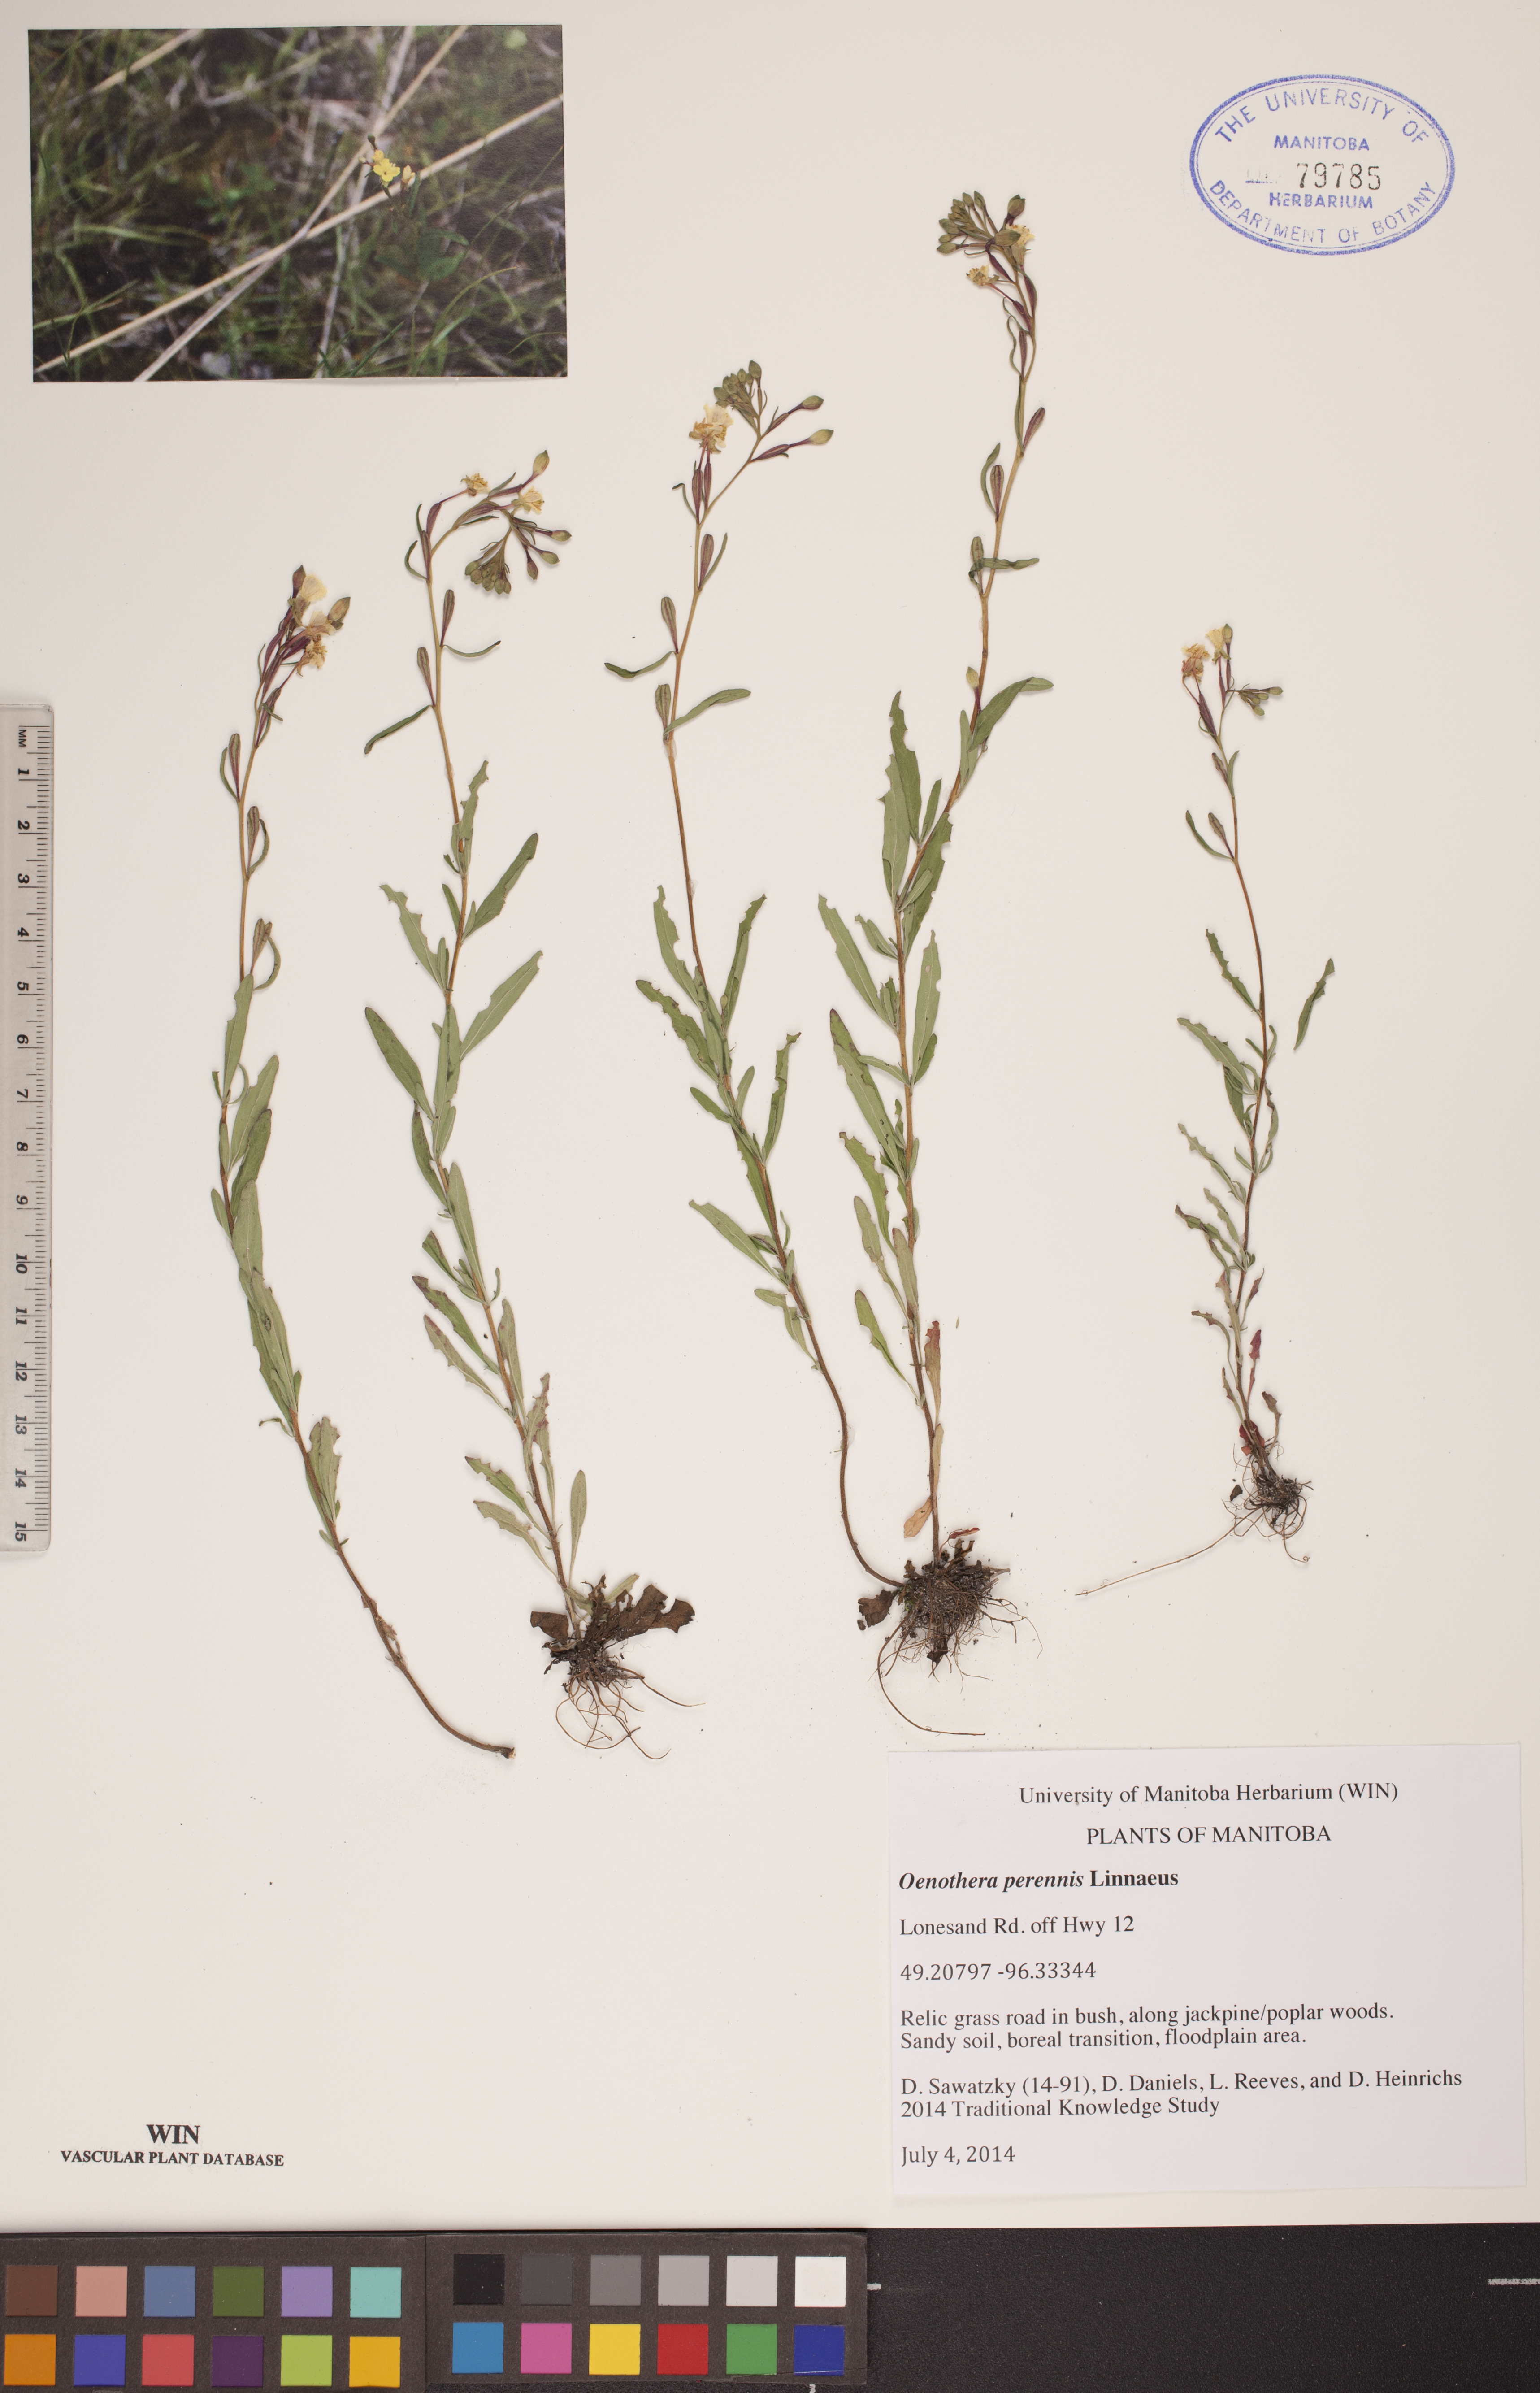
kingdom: Plantae
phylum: Tracheophyta
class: Magnoliopsida
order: Myrtales
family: Onagraceae
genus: Oenothera
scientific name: Oenothera perennis
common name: Small sundrops
